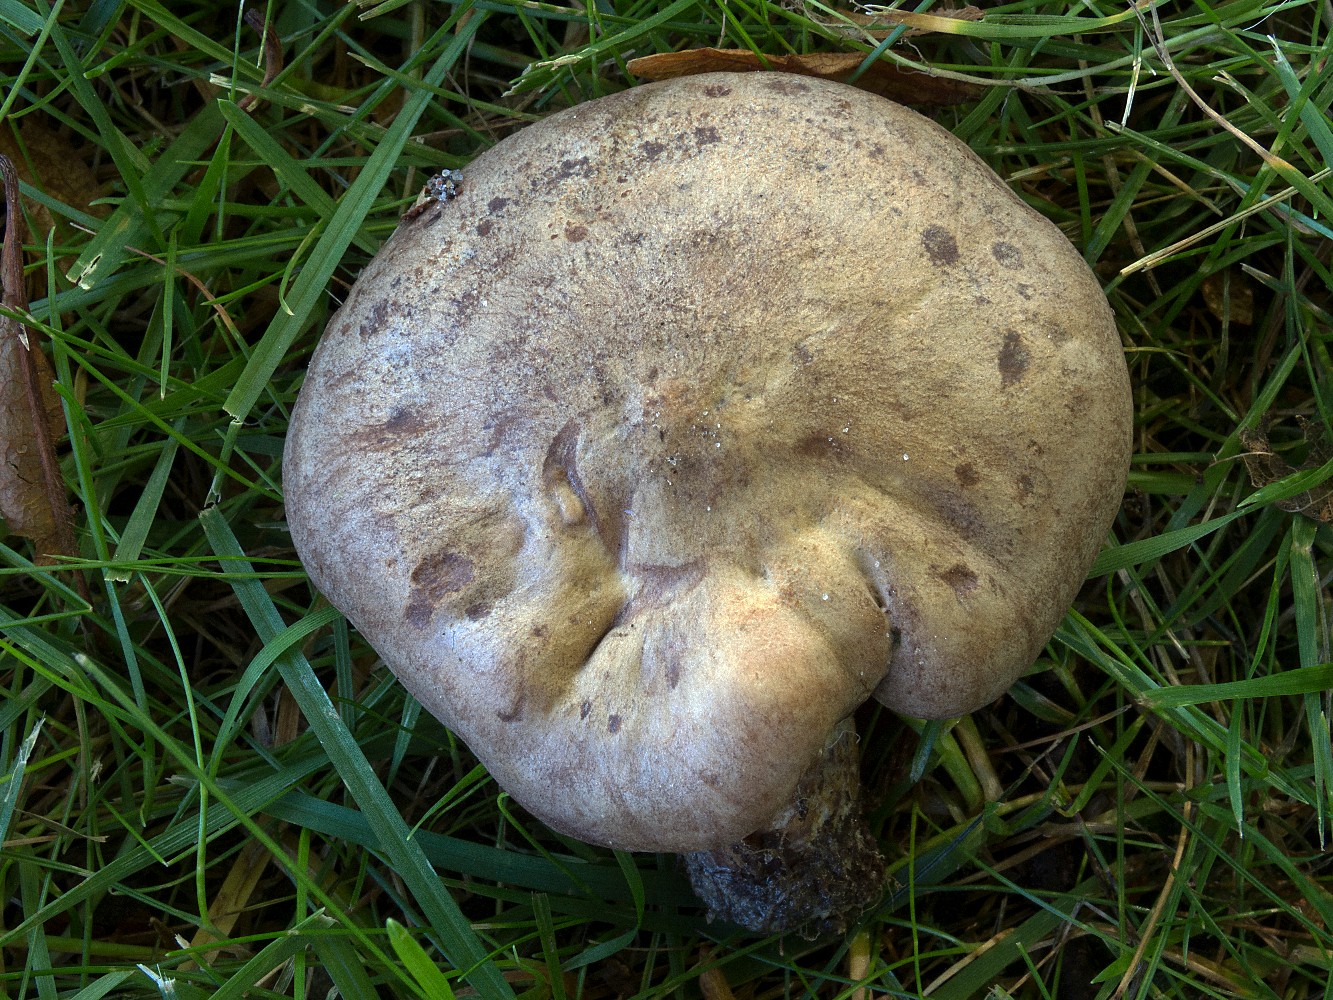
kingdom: Fungi
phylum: Basidiomycota
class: Agaricomycetes
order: Russulales
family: Russulaceae
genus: Lactarius
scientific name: Lactarius violascens
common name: gråviolet mælkehat
